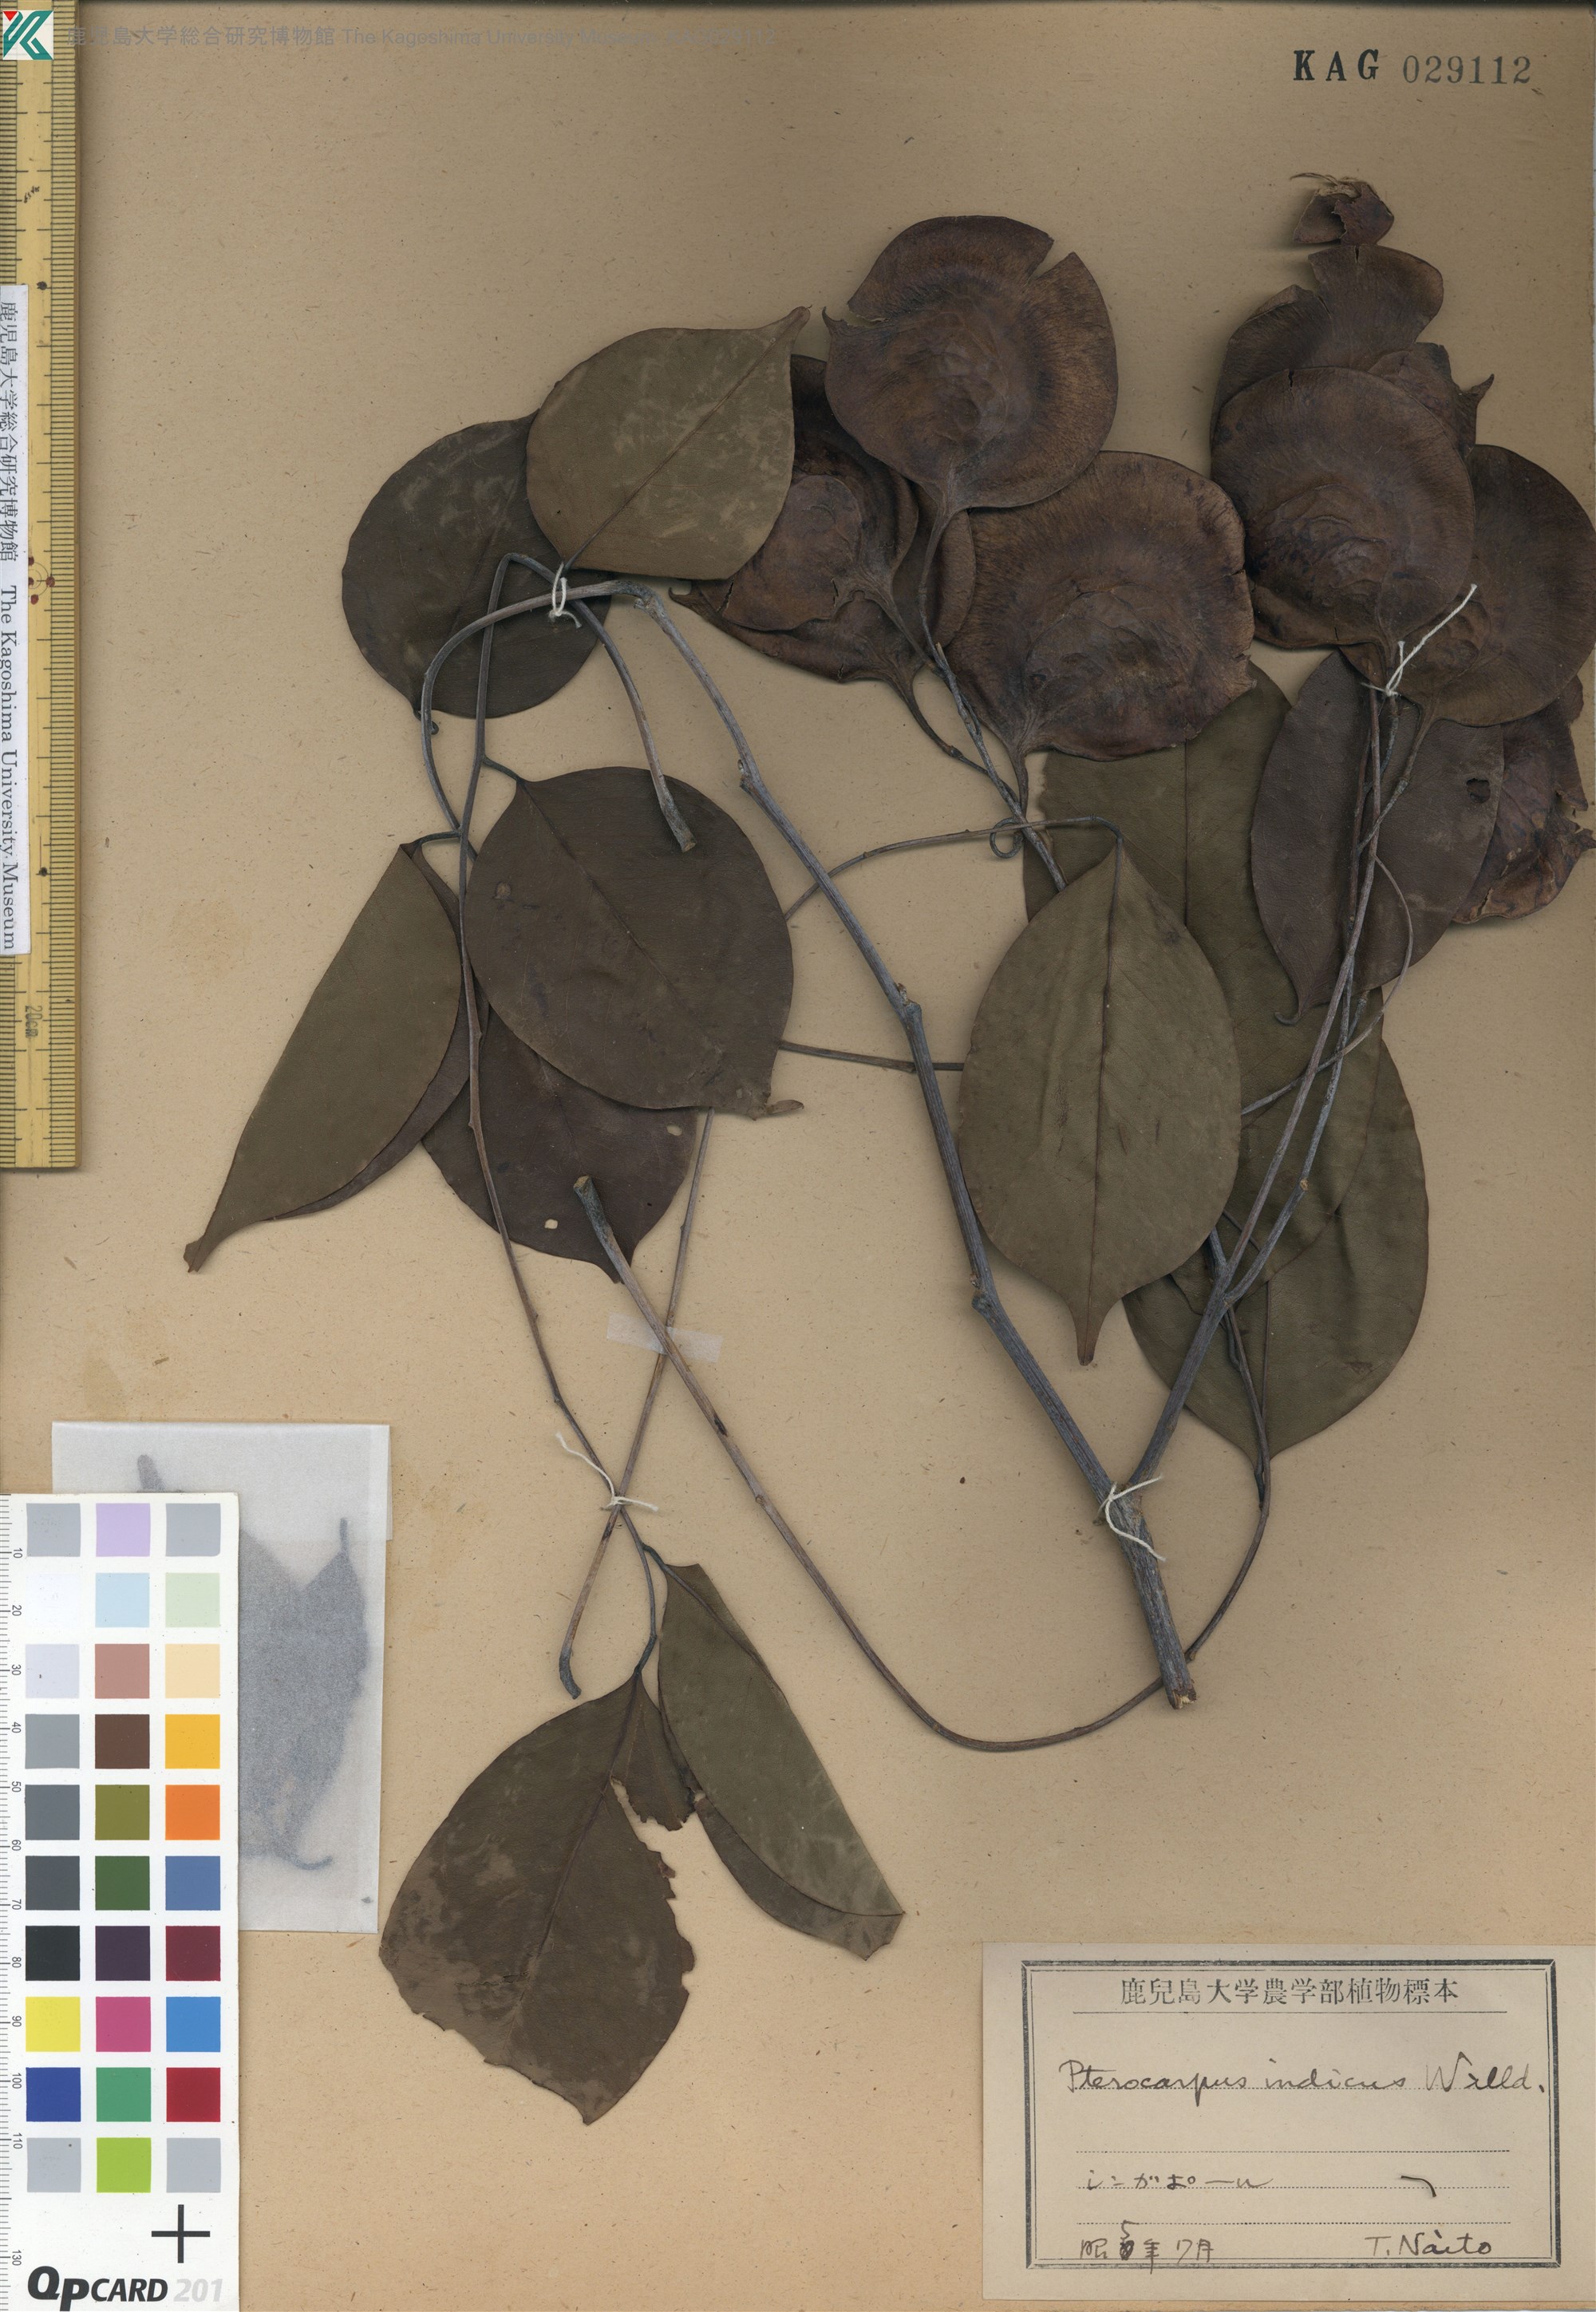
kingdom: Plantae
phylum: Tracheophyta
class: Magnoliopsida
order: Fabales
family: Fabaceae
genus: Pterocarpus
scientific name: Pterocarpus indicus
